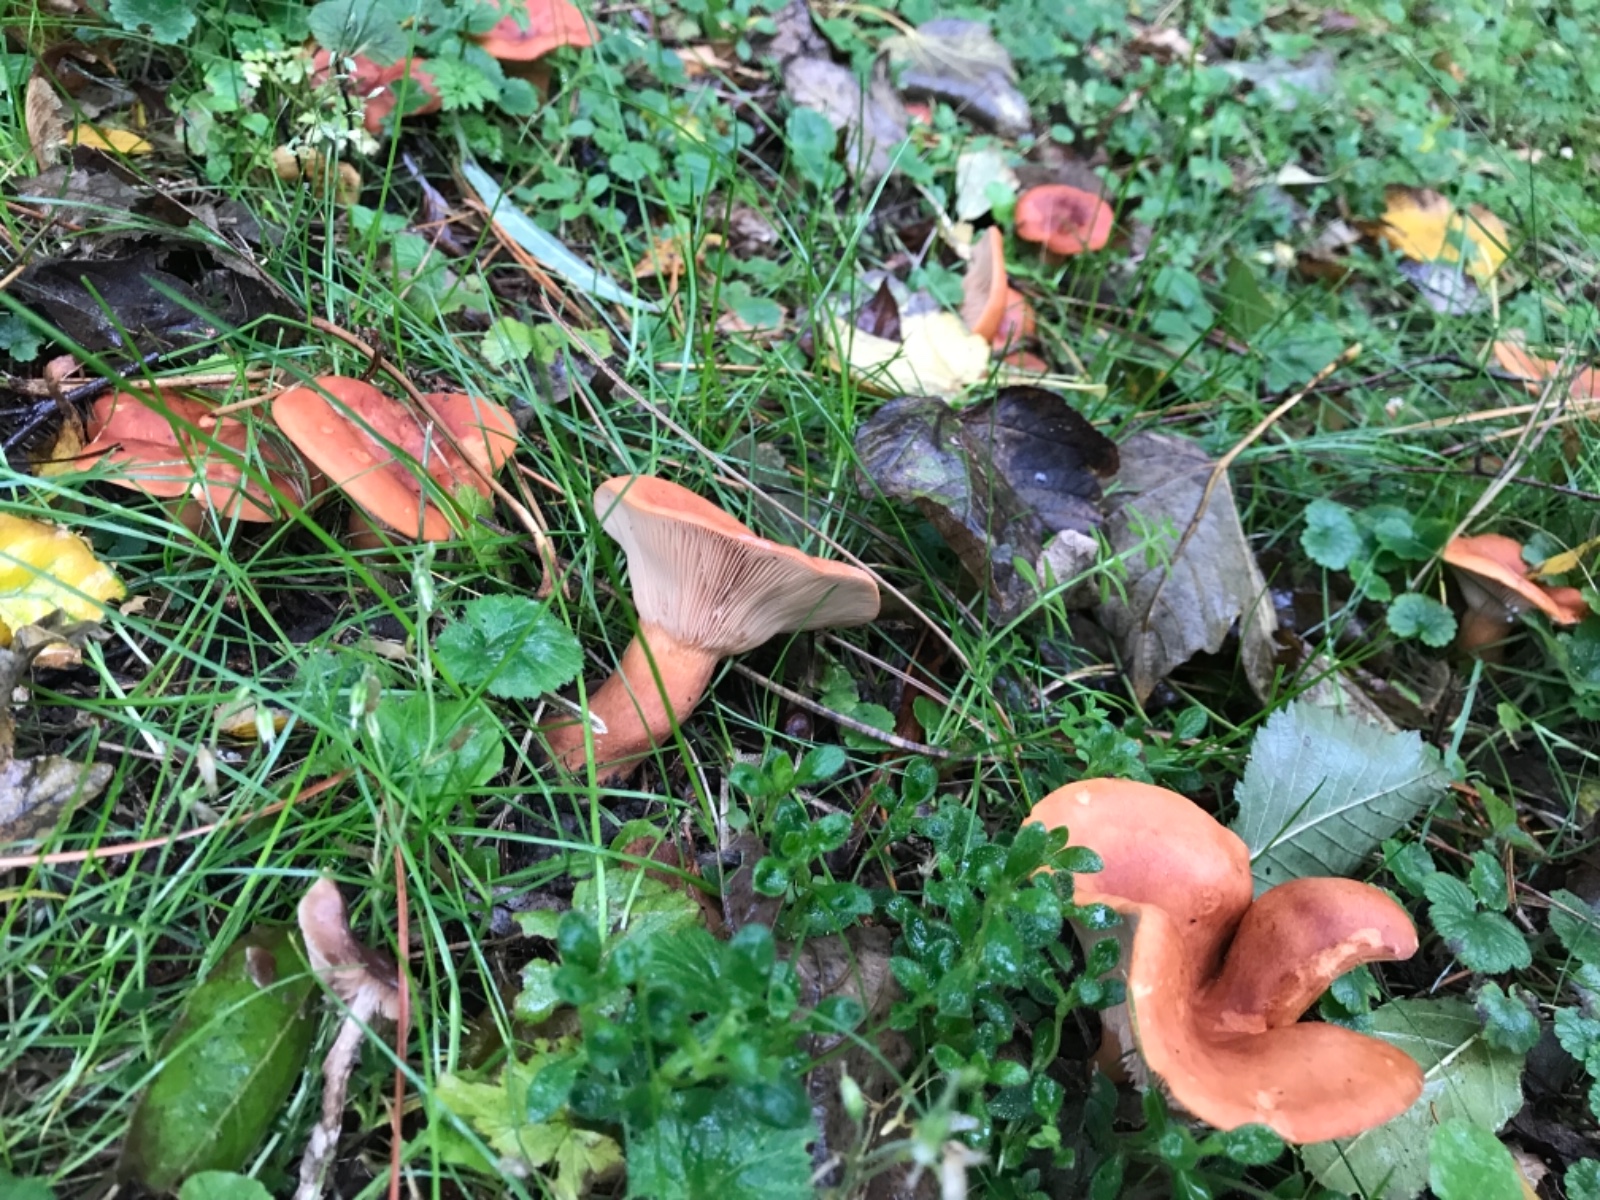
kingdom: Fungi
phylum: Basidiomycota
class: Agaricomycetes
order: Russulales
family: Russulaceae
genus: Lactarius
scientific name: Lactarius
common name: mælkehat
